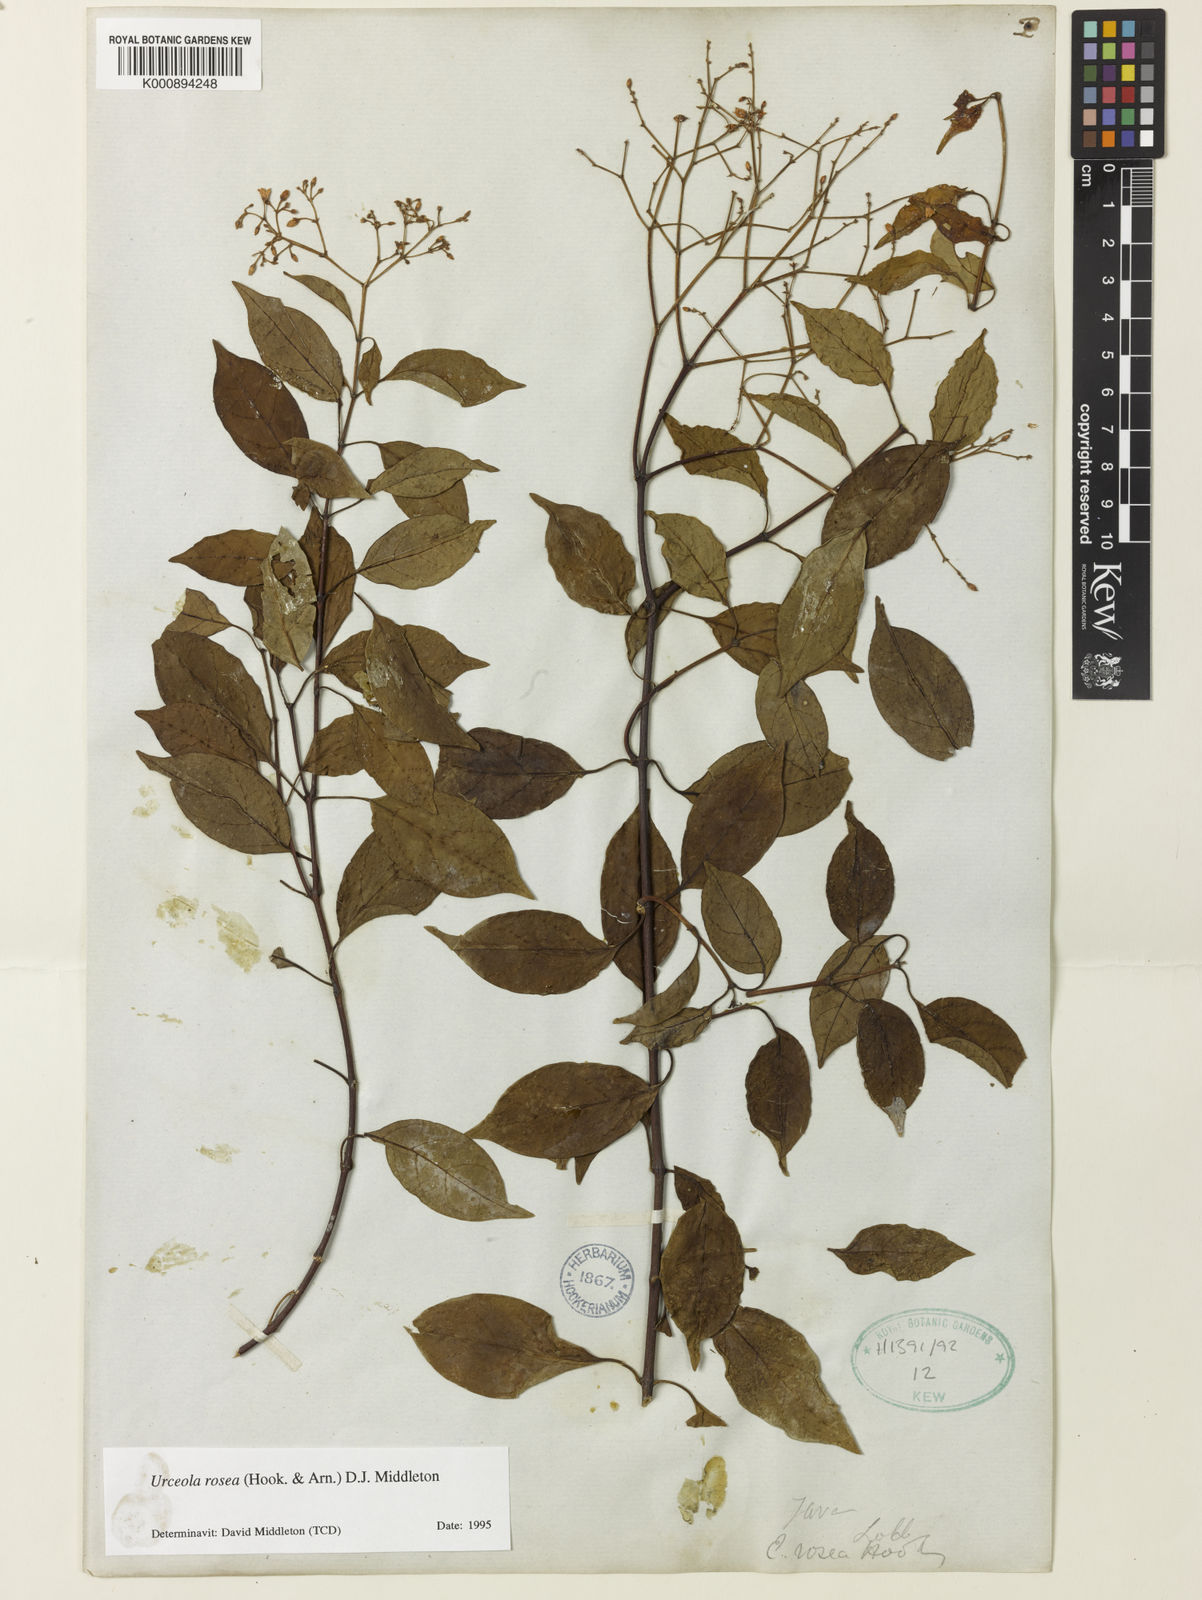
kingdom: Plantae
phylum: Tracheophyta
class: Magnoliopsida
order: Gentianales
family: Apocynaceae
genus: Urceola
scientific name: Urceola rosea
